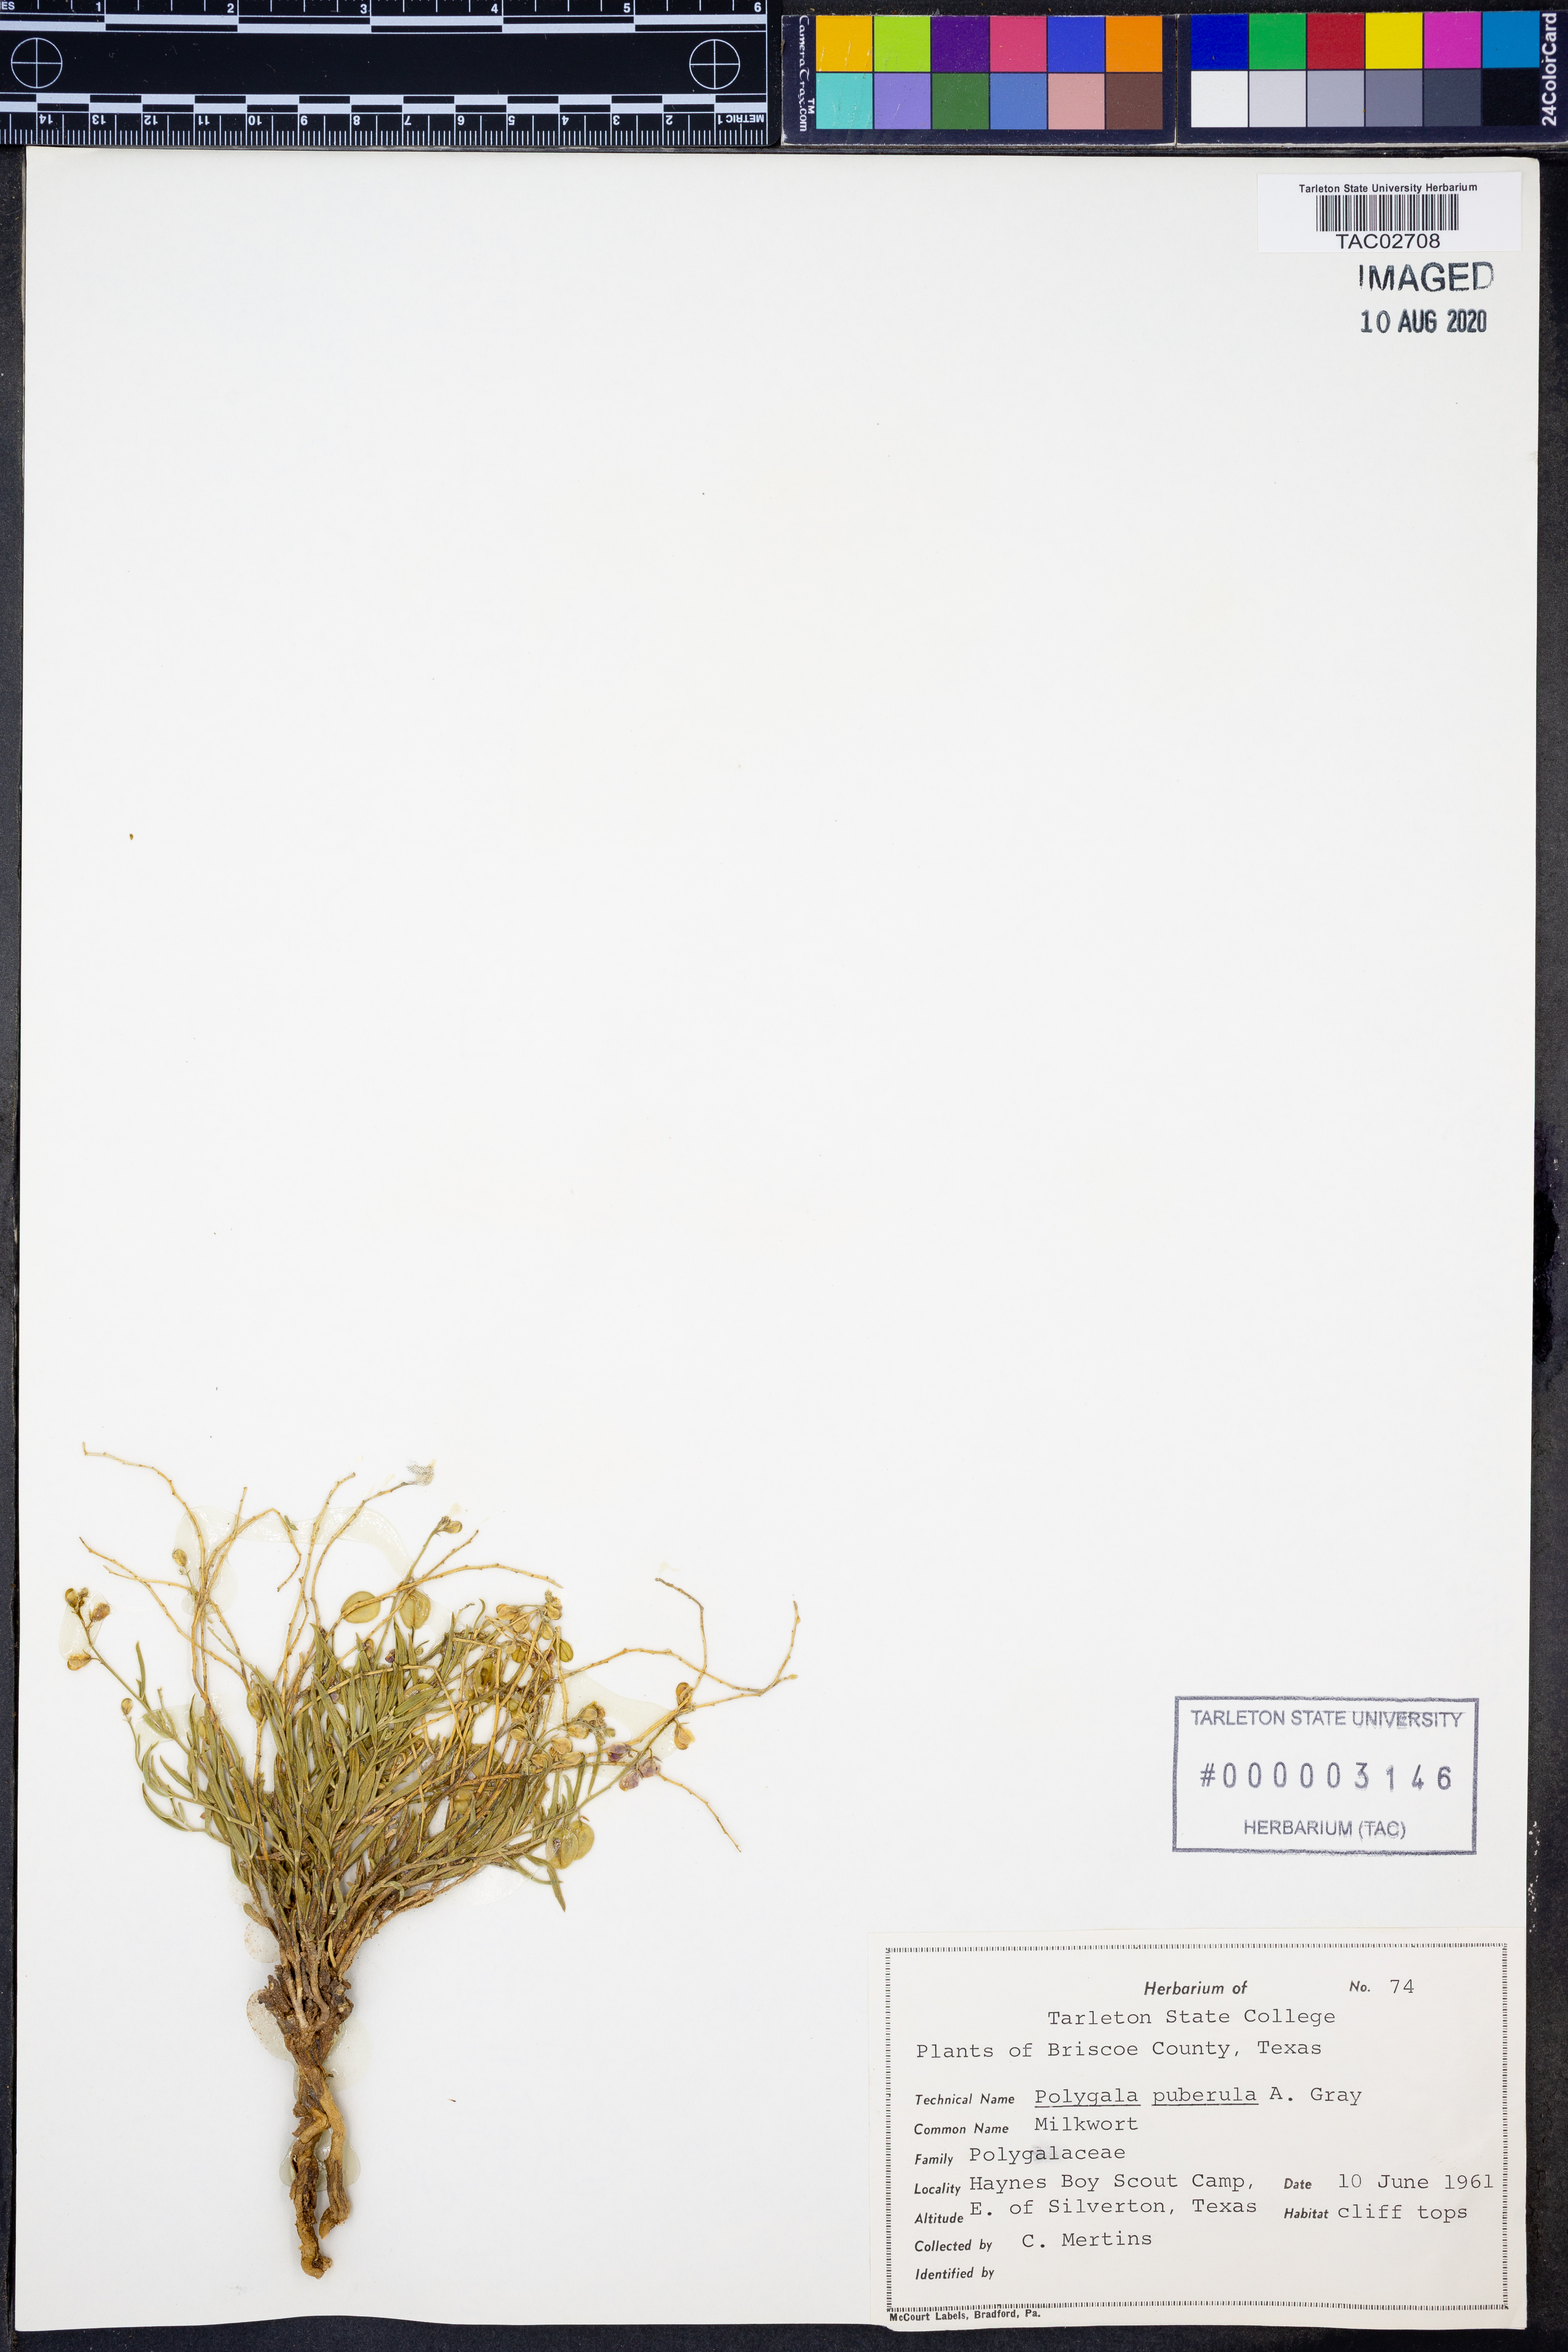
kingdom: Plantae
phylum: Tracheophyta
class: Magnoliopsida
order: Fabales
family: Polygalaceae
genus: Asemeia
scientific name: Asemeia violacea
